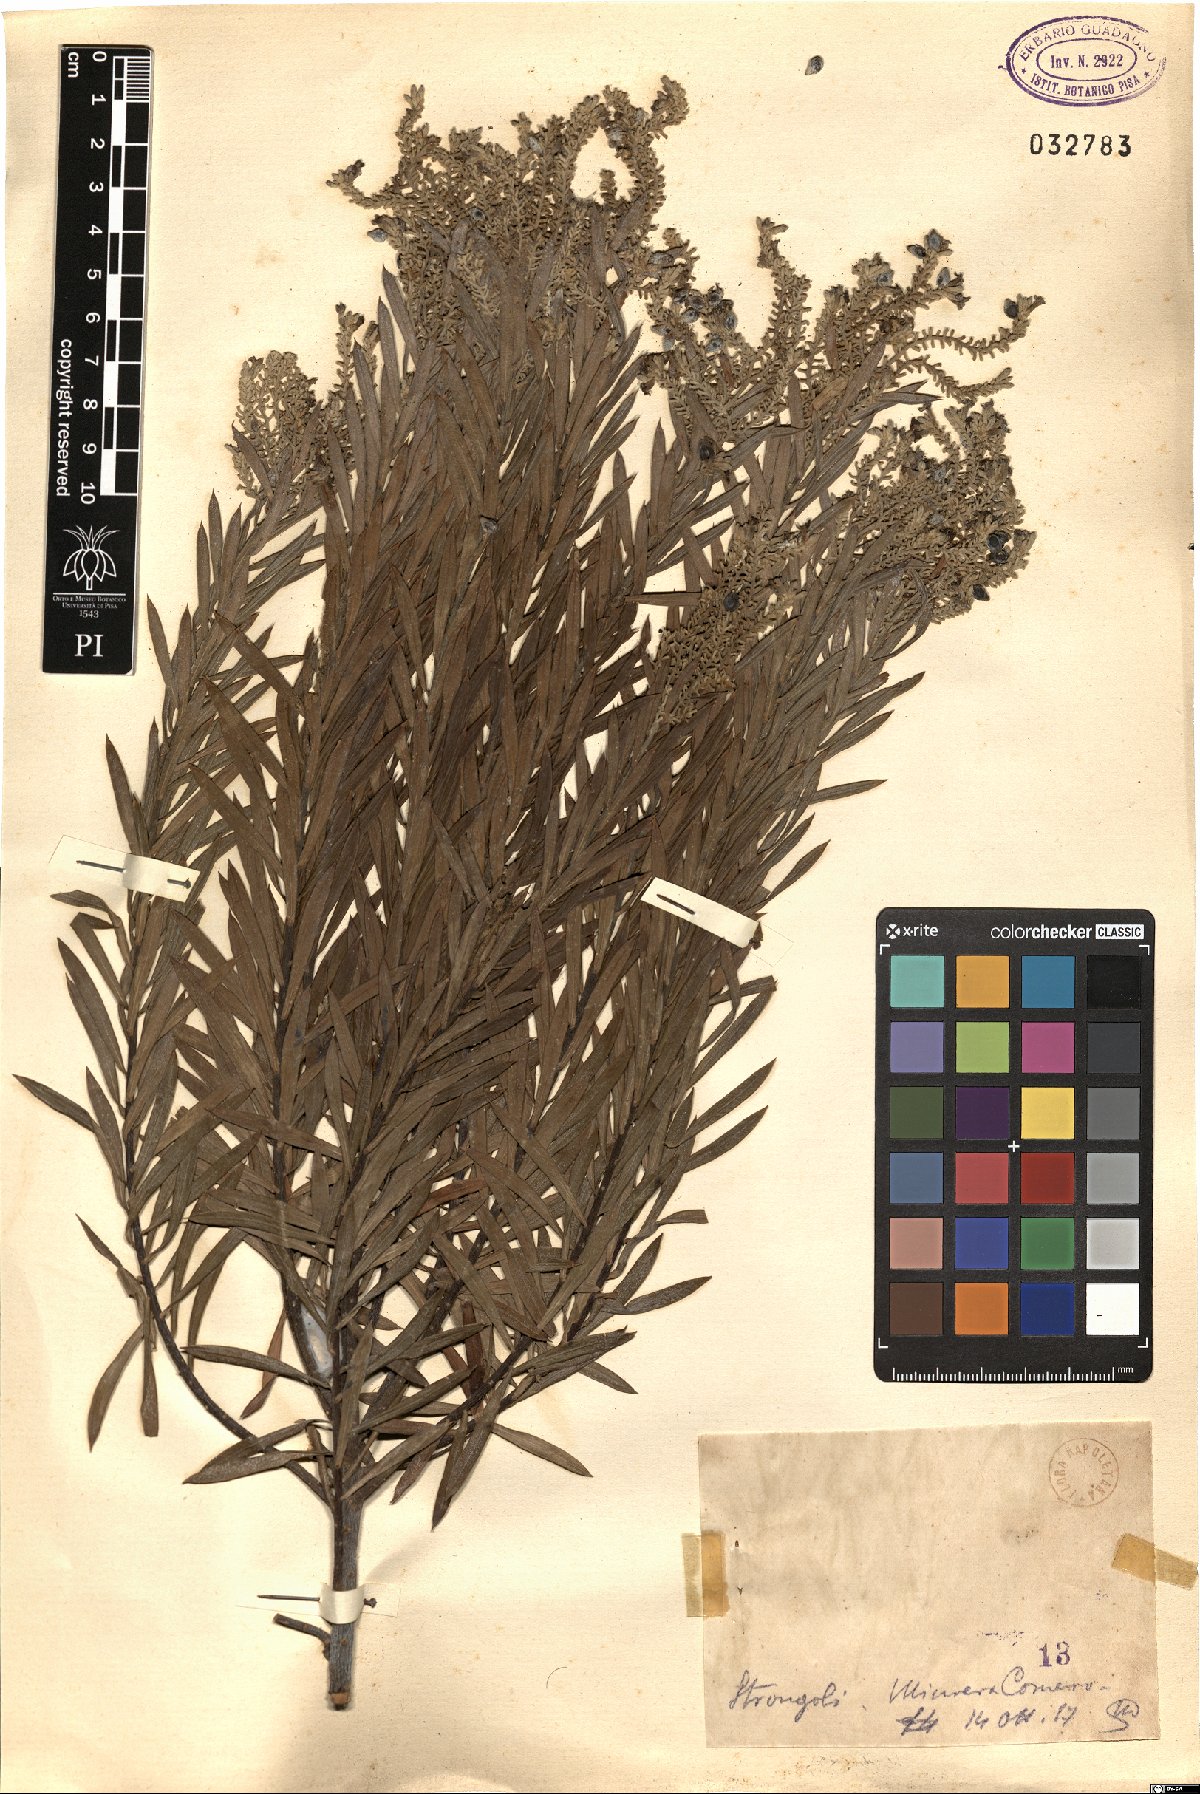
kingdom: Plantae
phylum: Tracheophyta
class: Magnoliopsida
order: Malvales
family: Thymelaeaceae
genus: Daphne
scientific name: Daphne
